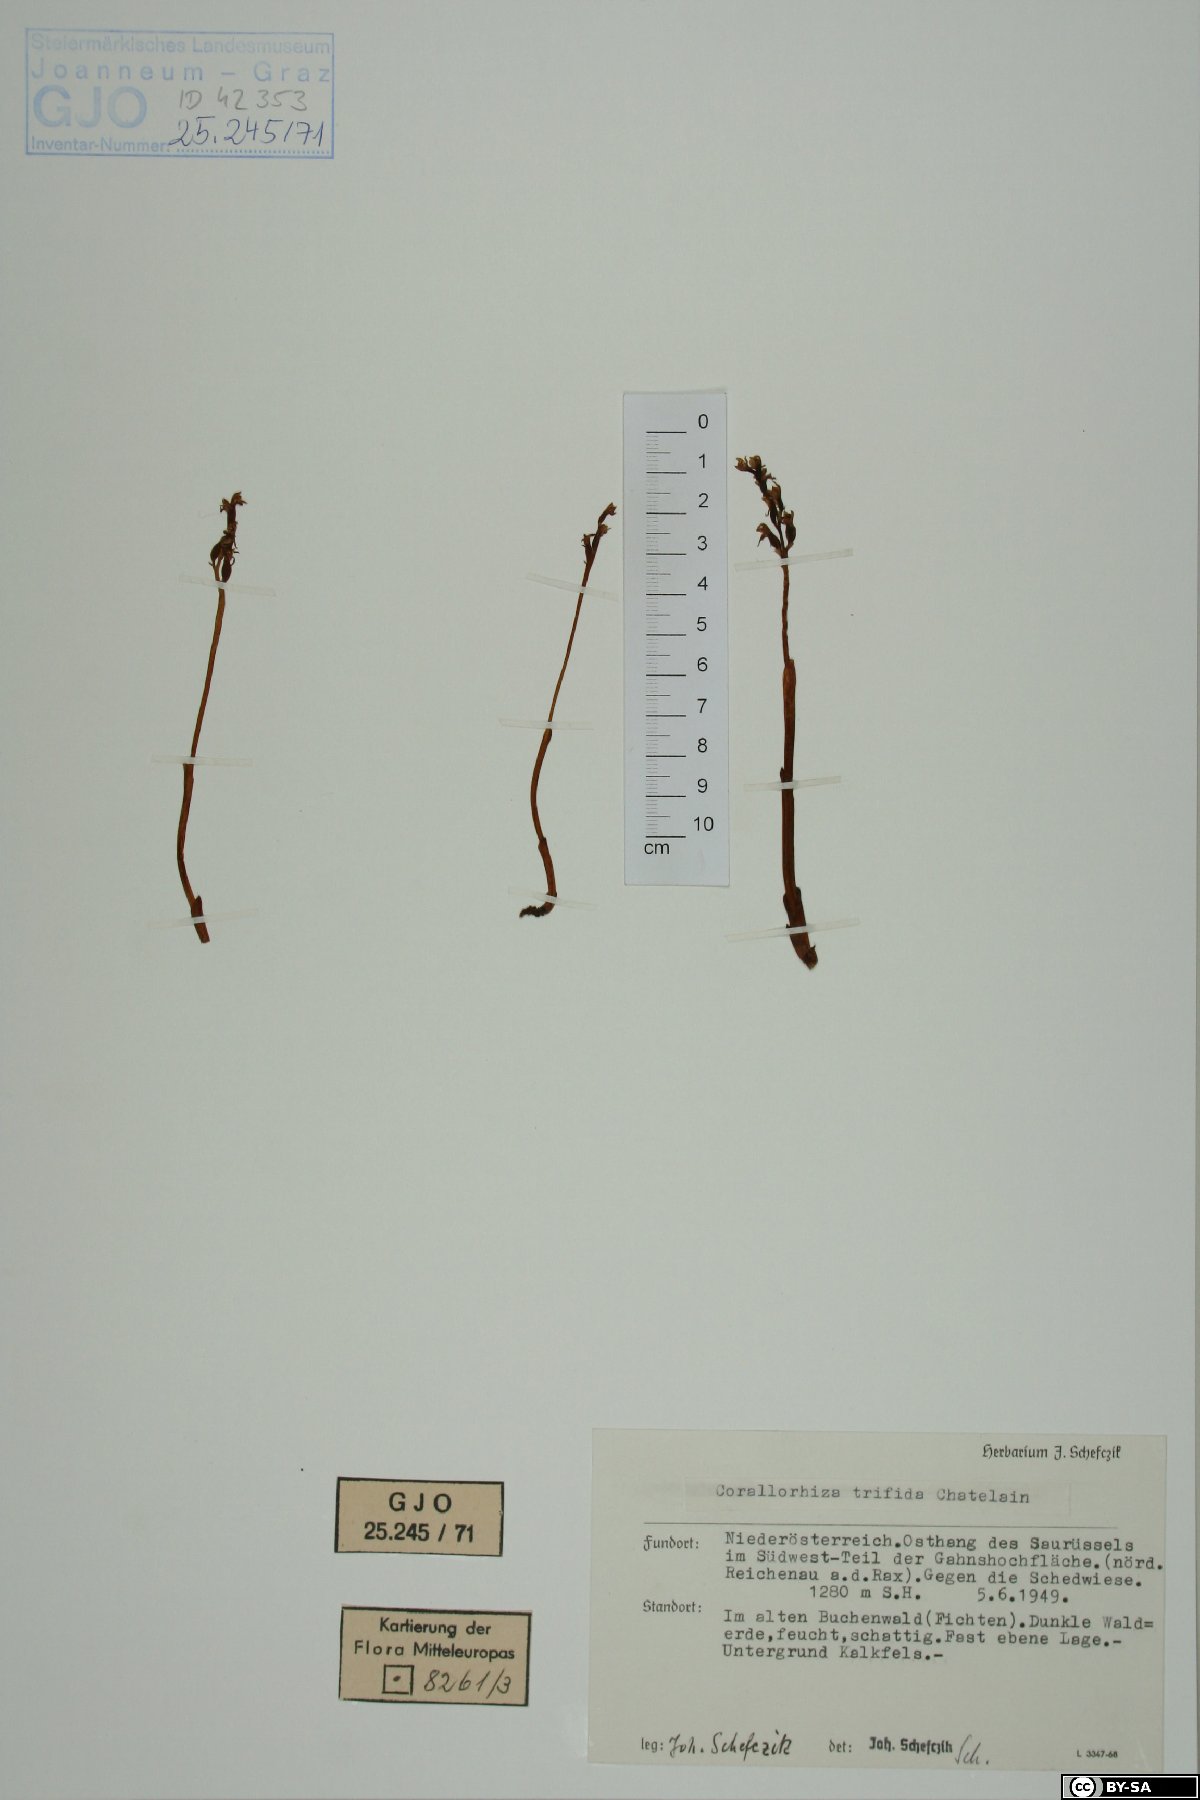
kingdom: Plantae
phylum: Tracheophyta
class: Liliopsida
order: Asparagales
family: Orchidaceae
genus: Corallorhiza
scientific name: Corallorhiza trifida
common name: Yellow coralroot
